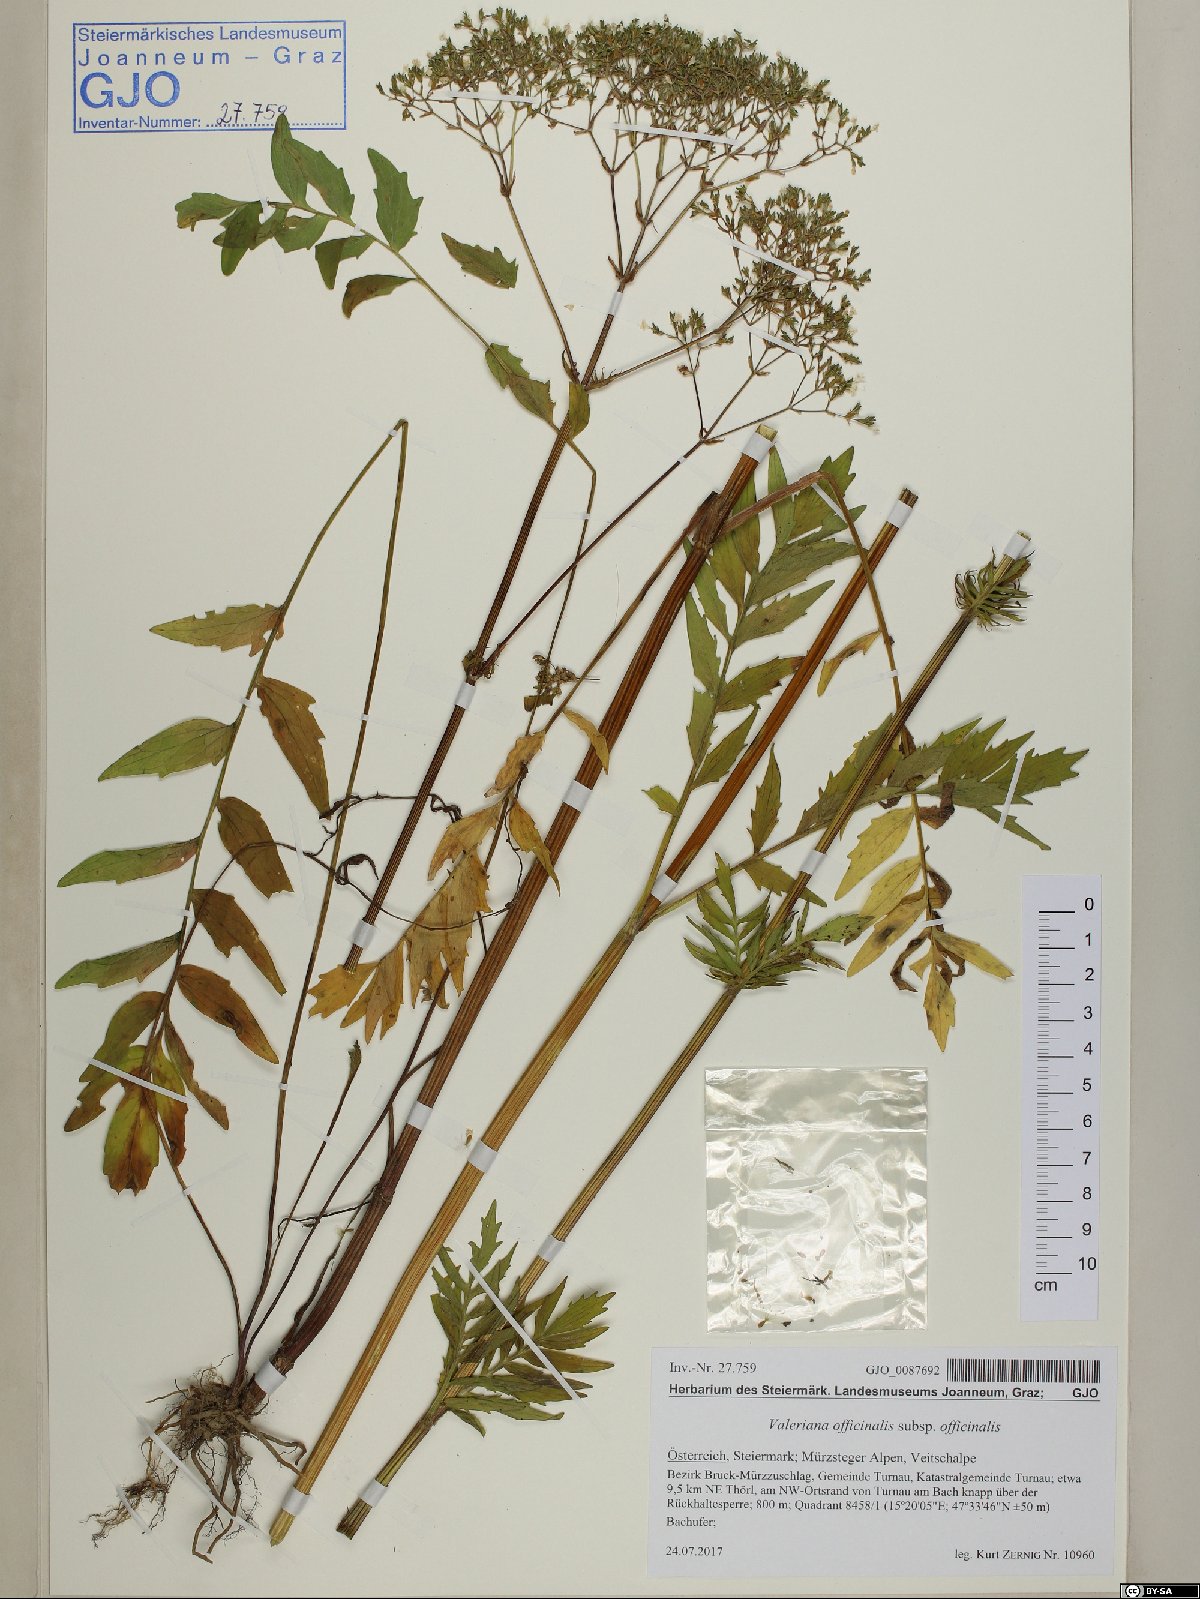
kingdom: Plantae
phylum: Tracheophyta
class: Magnoliopsida
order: Dipsacales
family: Caprifoliaceae
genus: Valeriana
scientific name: Valeriana officinalis
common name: Common valerian
